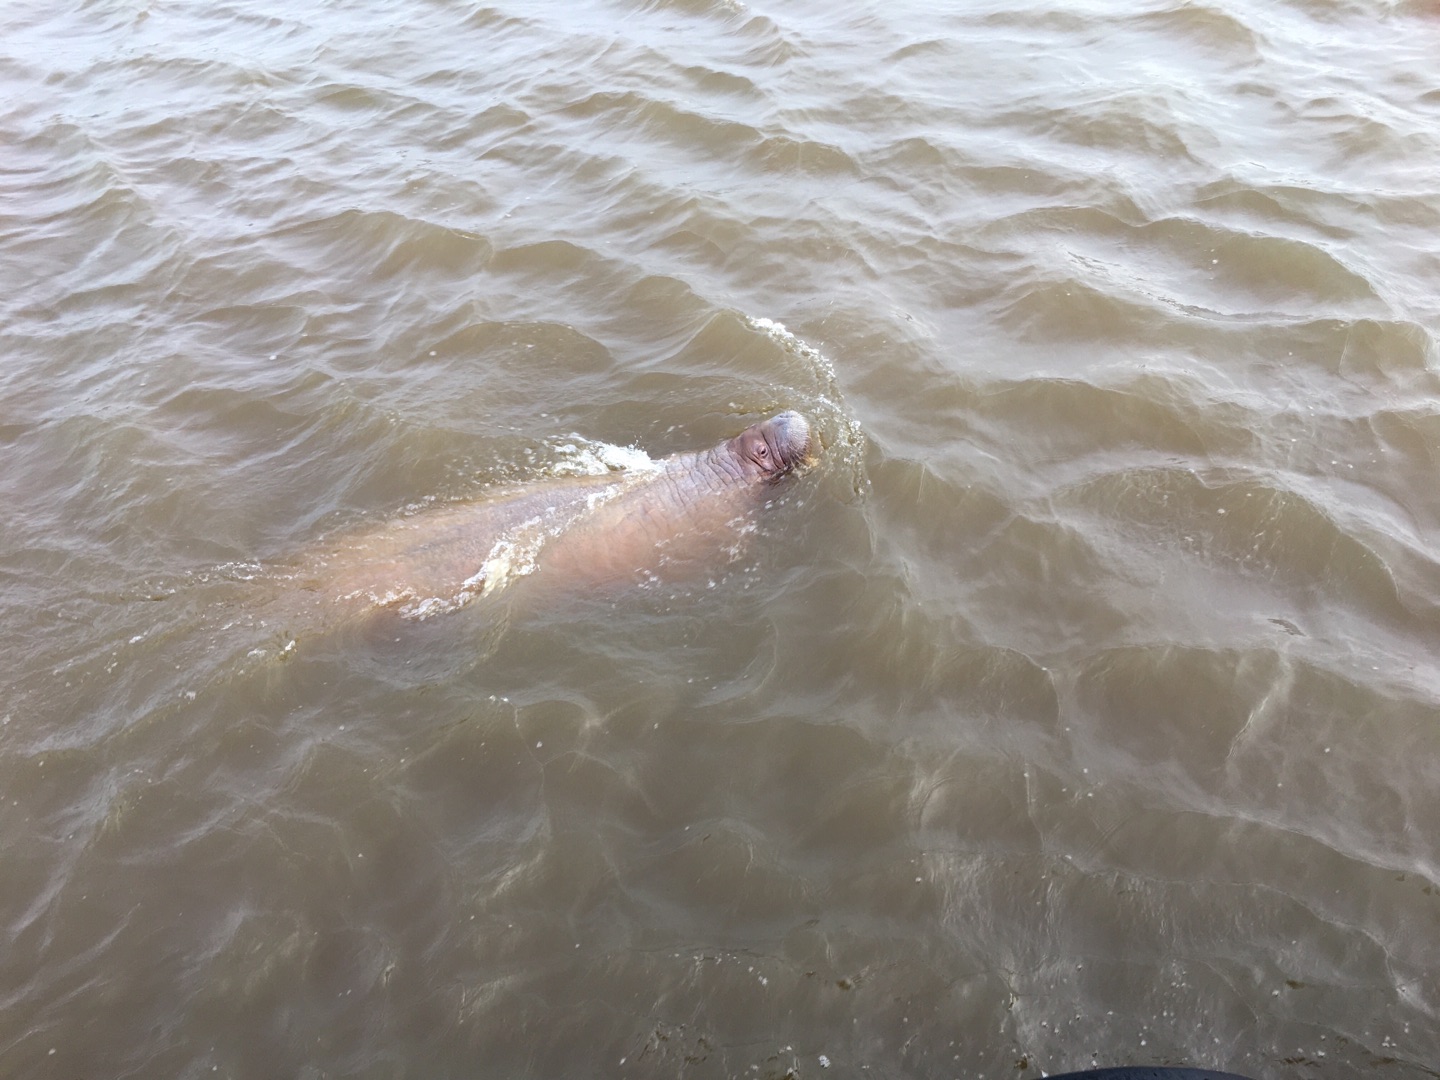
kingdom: Animalia
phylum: Chordata
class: Mammalia
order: Carnivora
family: Odobenidae
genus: Odobenus
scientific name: Odobenus rosmarus
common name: Hvalros
